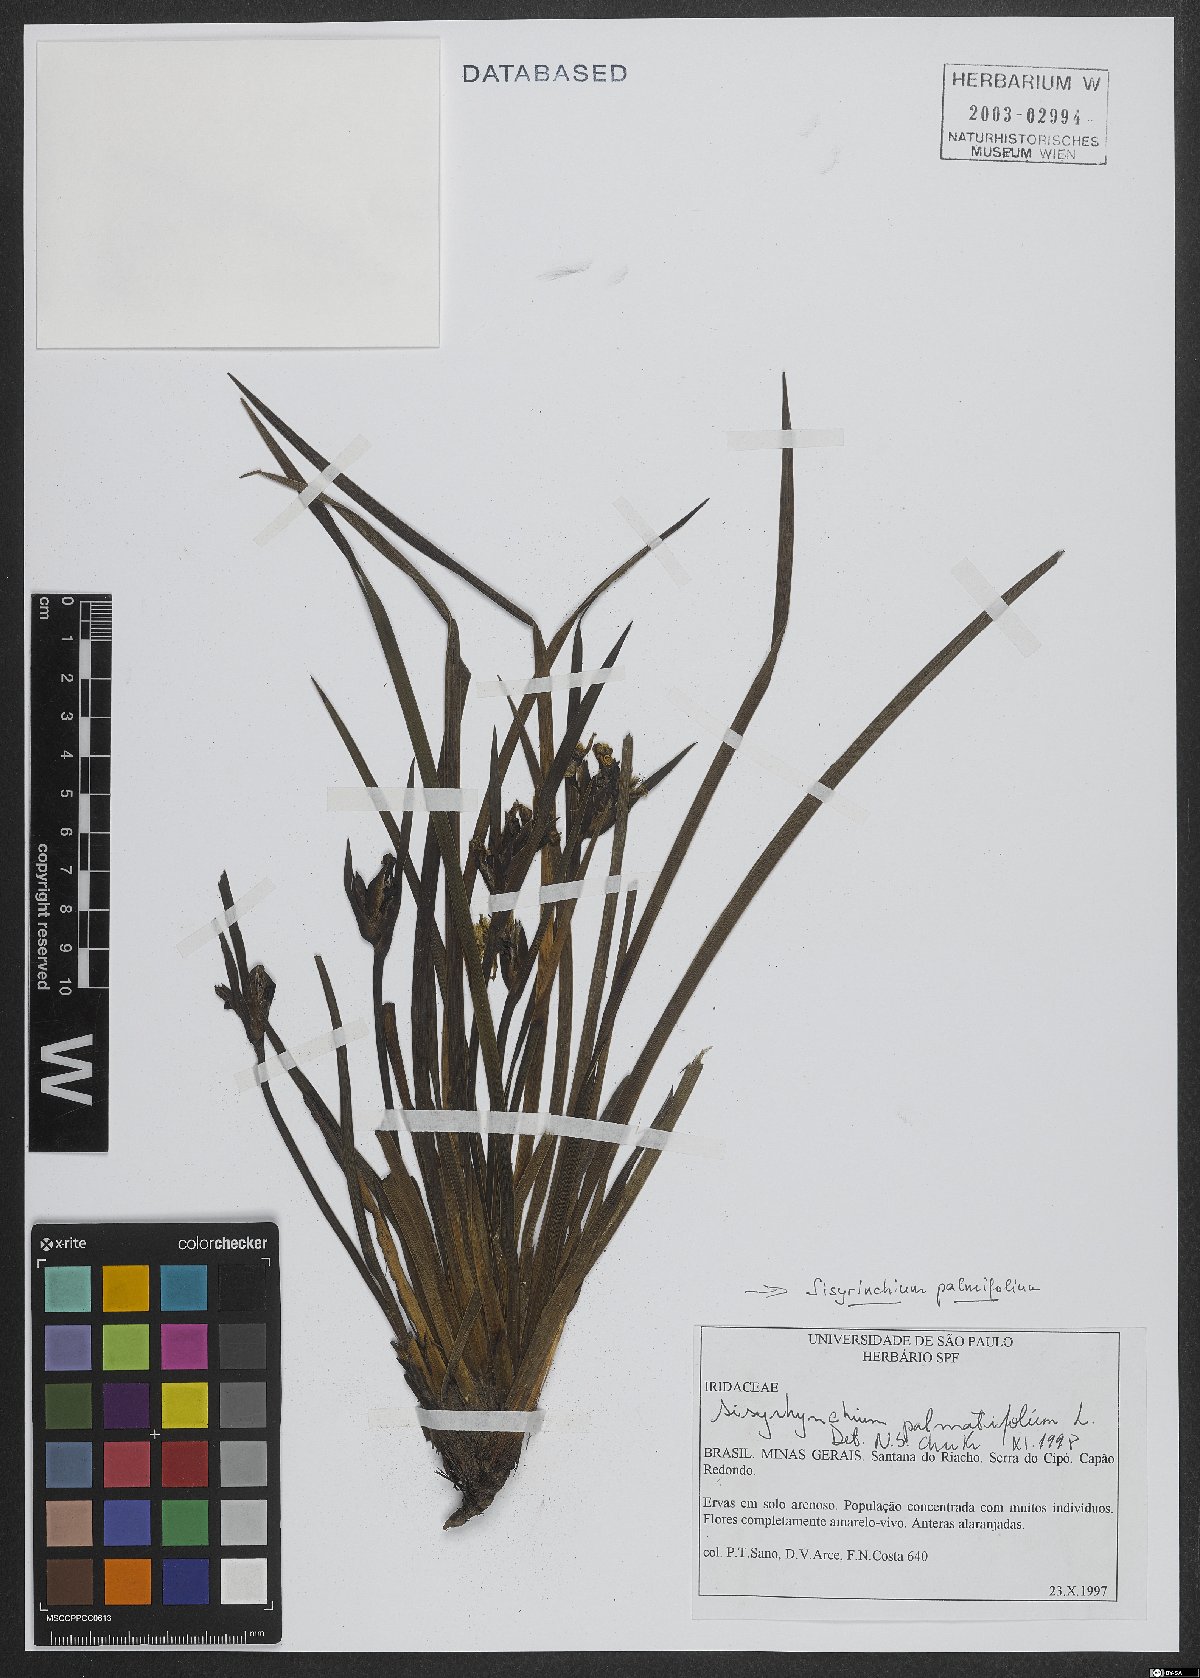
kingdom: Plantae
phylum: Tracheophyta
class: Liliopsida
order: Asparagales
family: Iridaceae
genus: Sisyrinchium
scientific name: Sisyrinchium palmifolium
